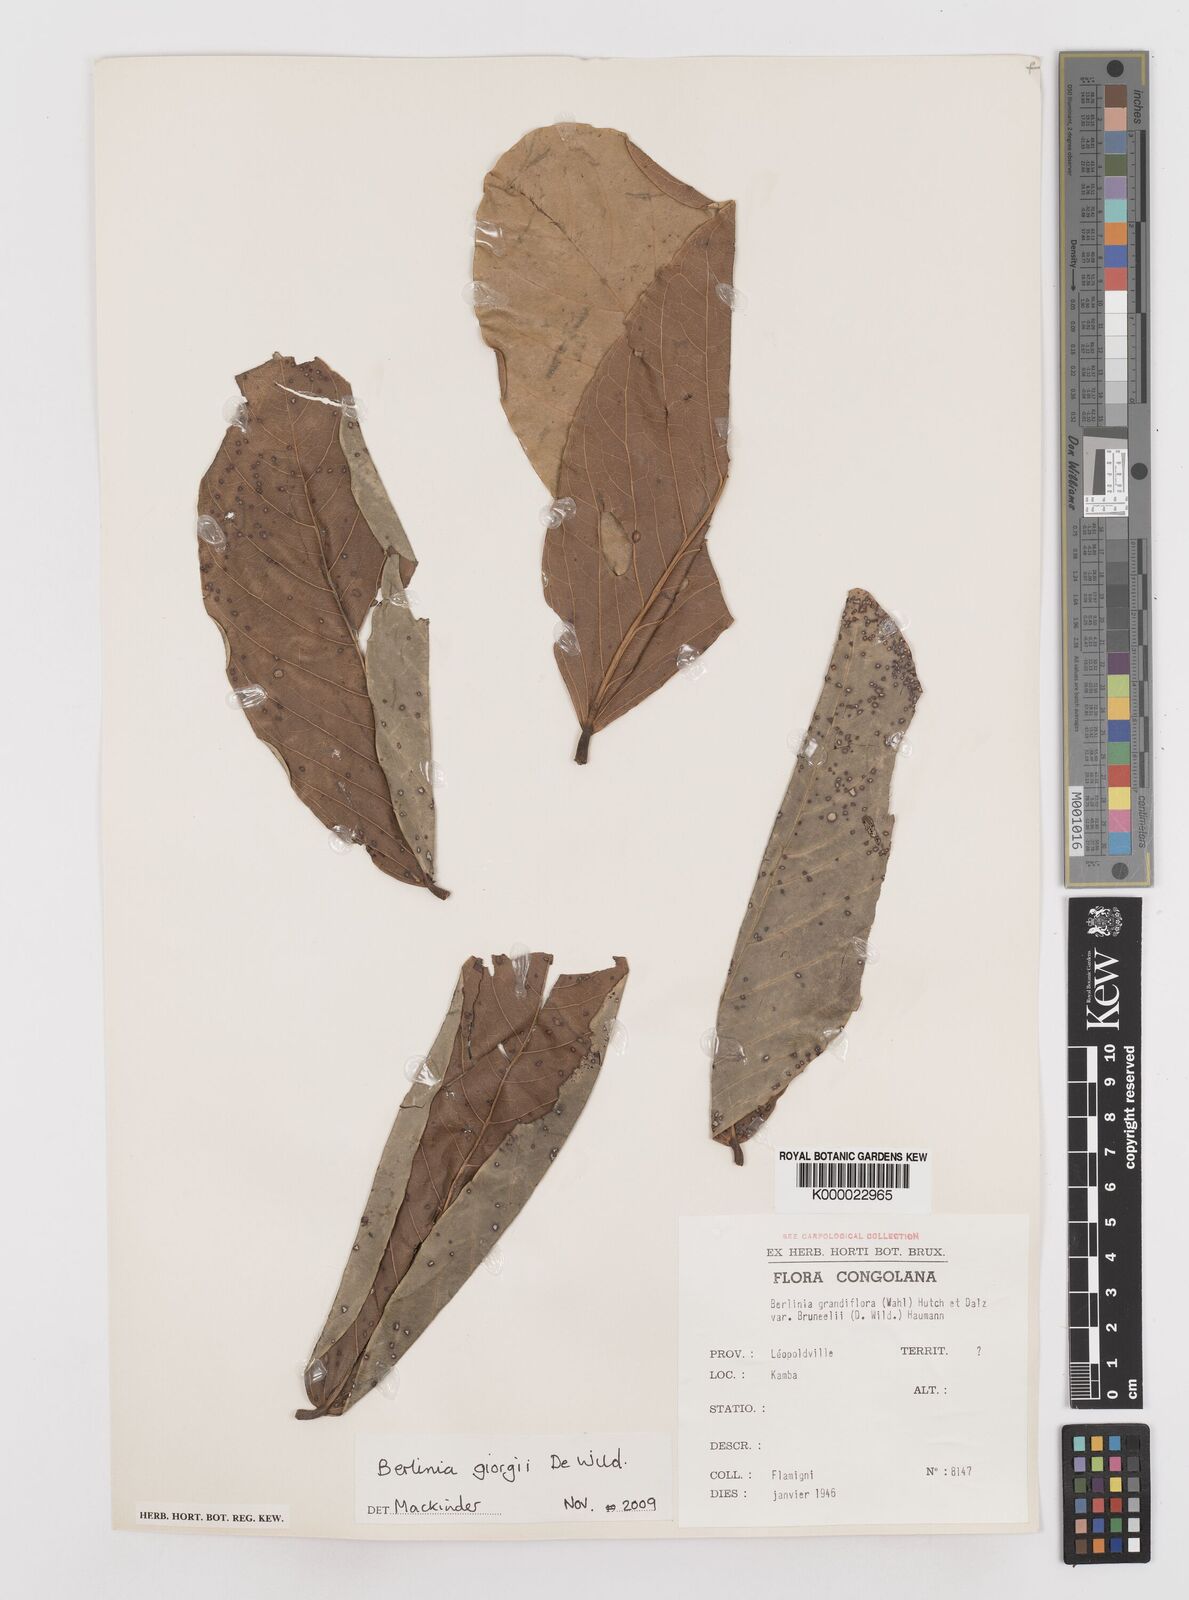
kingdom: Plantae
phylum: Tracheophyta
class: Magnoliopsida
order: Fabales
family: Fabaceae
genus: Berlinia
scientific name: Berlinia giorgii
